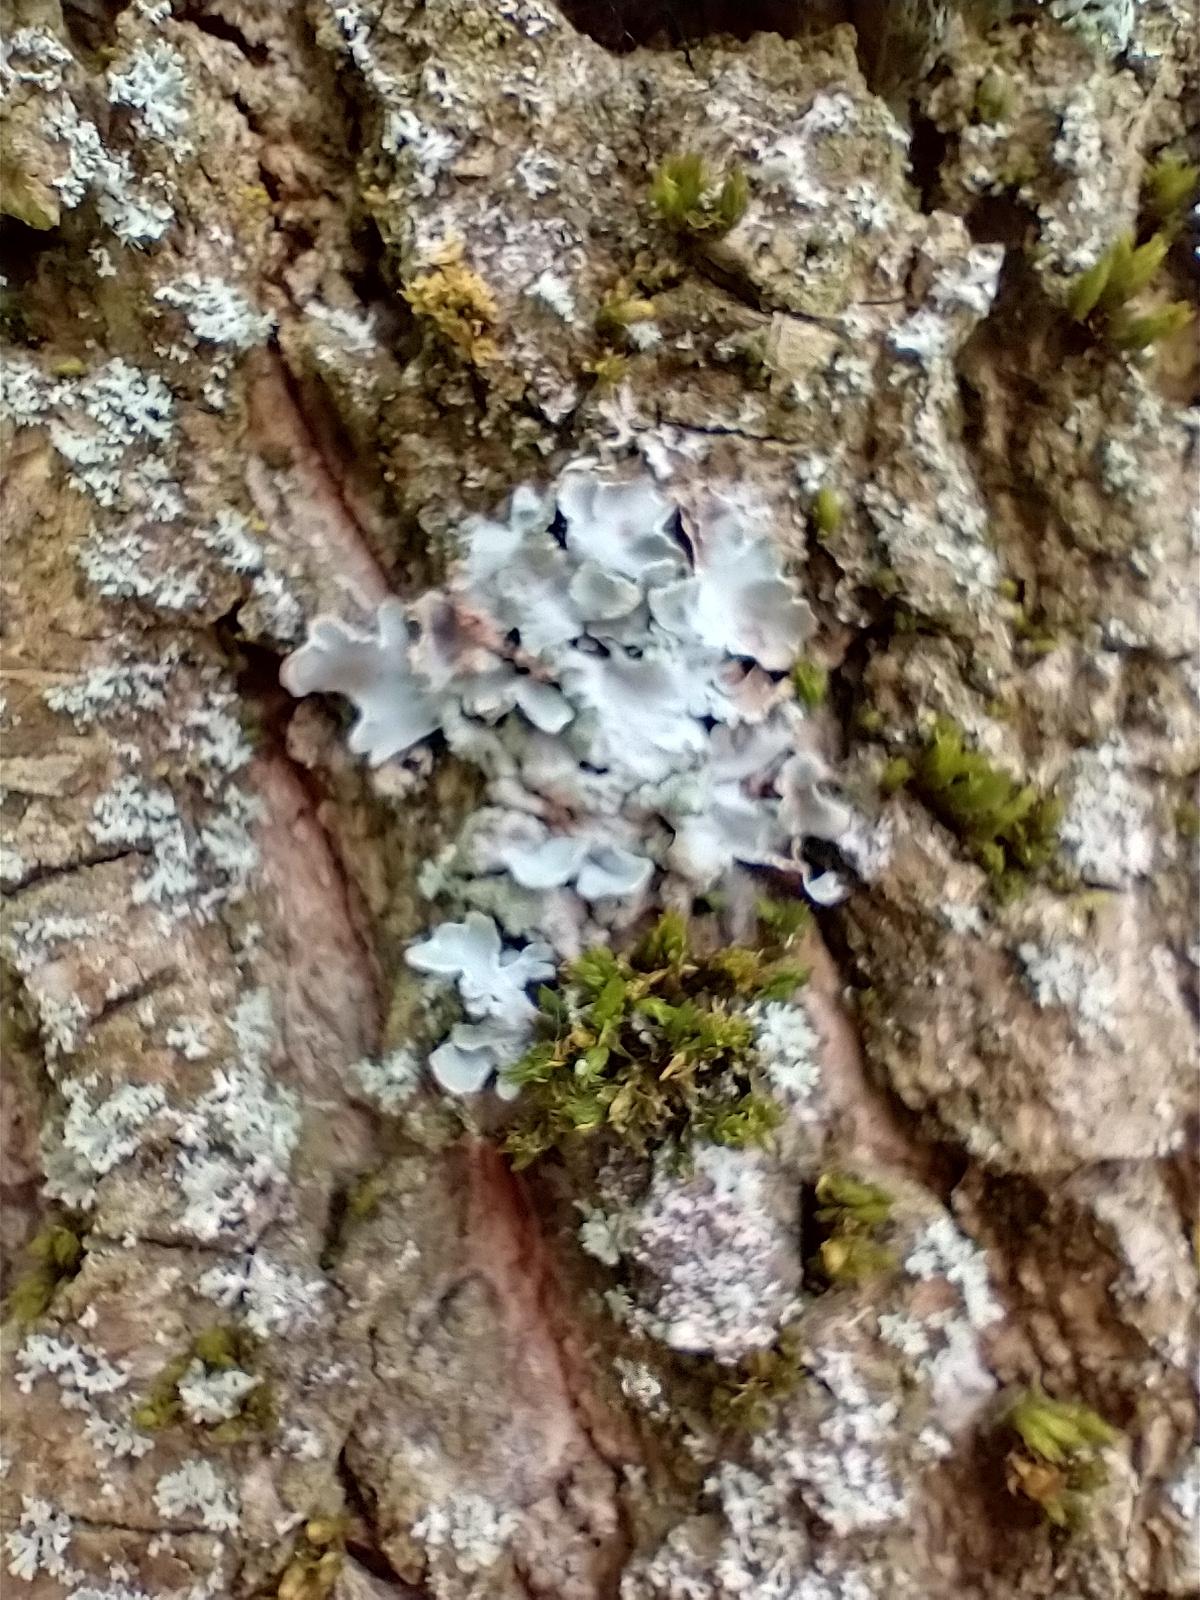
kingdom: Fungi
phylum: Ascomycota
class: Lecanoromycetes
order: Lecanorales
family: Parmeliaceae
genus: Parmelia
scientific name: Parmelia sulcata
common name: Rynket skållav
